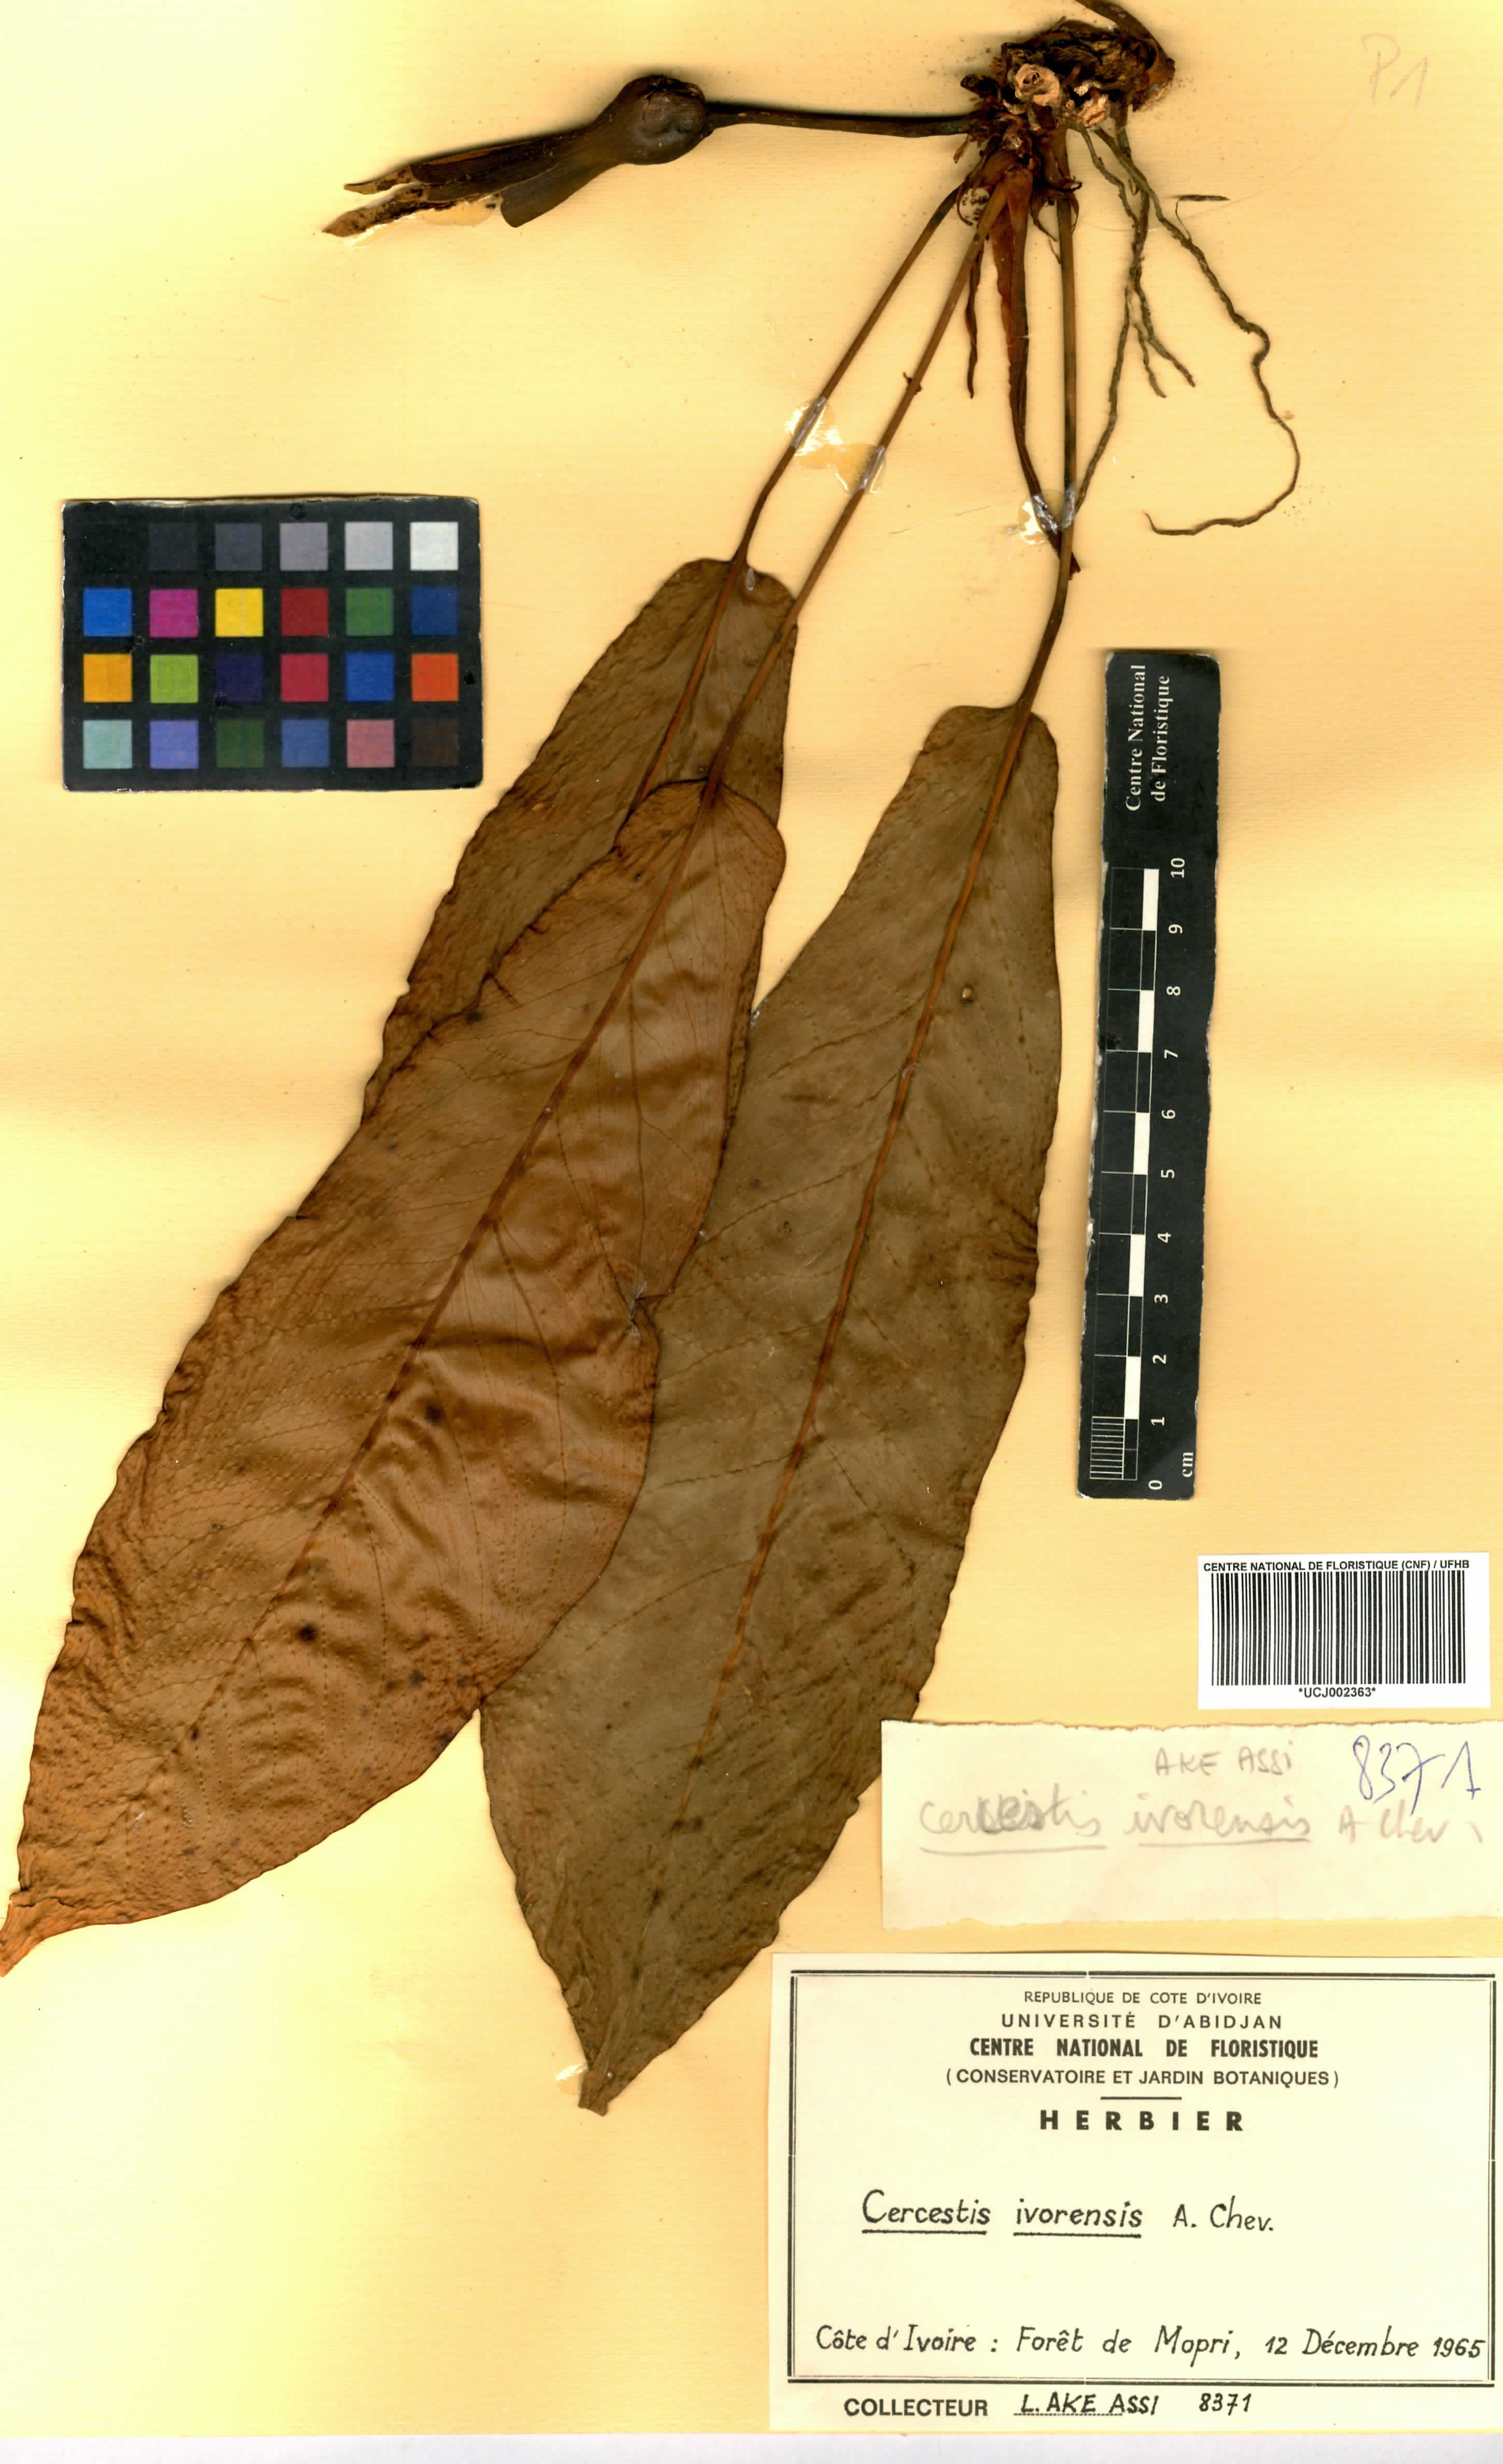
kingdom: Plantae
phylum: Tracheophyta
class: Liliopsida
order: Alismatales
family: Araceae
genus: Cercestis
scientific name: Cercestis ivorensis
